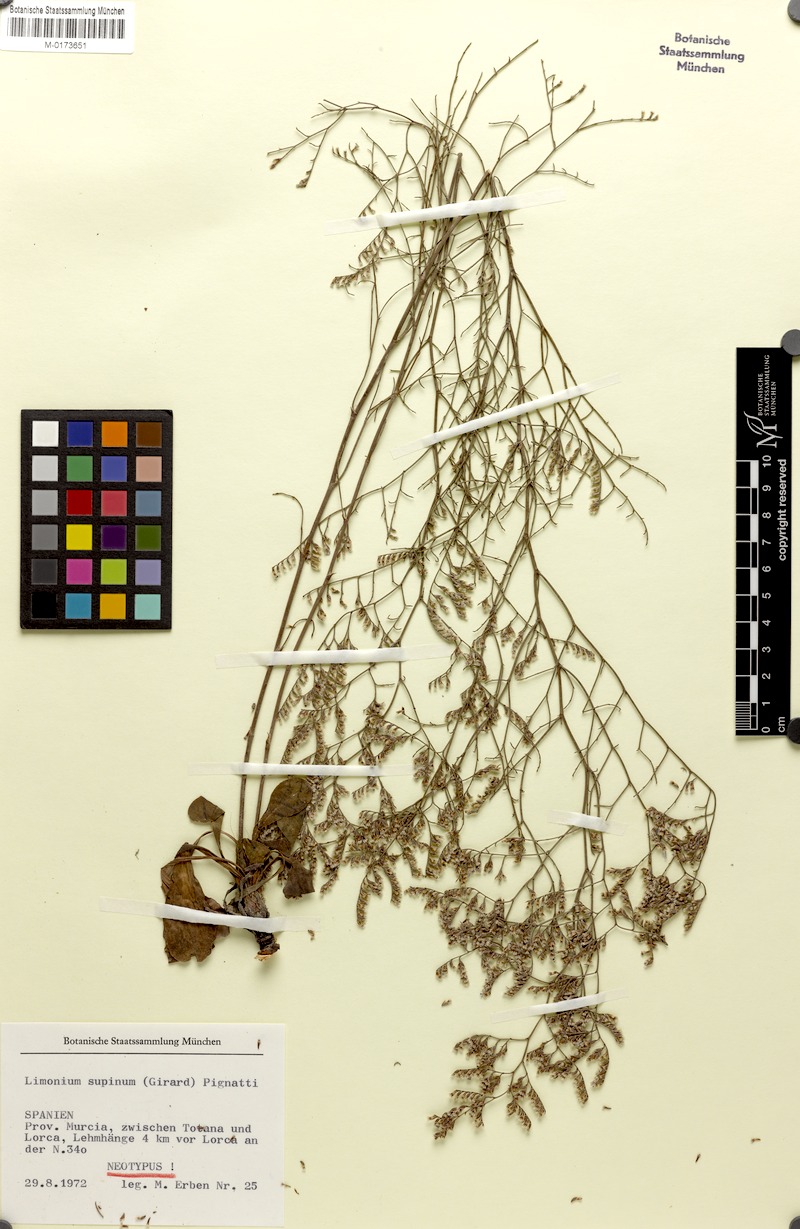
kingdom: Plantae
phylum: Tracheophyta
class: Magnoliopsida
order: Caryophyllales
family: Plumbaginaceae
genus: Limonium
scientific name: Limonium supinum
